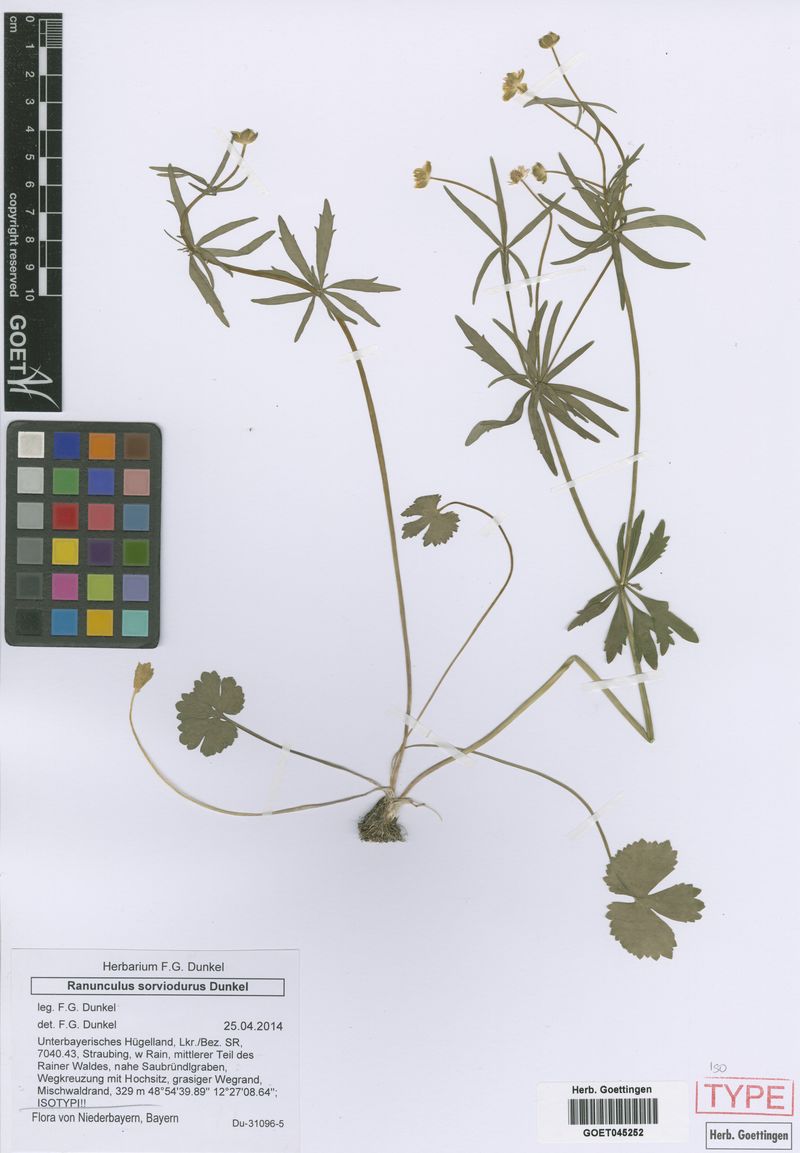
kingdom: Plantae
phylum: Tracheophyta
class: Magnoliopsida
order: Ranunculales
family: Ranunculaceae
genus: Ranunculus
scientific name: Ranunculus sorviodurus
